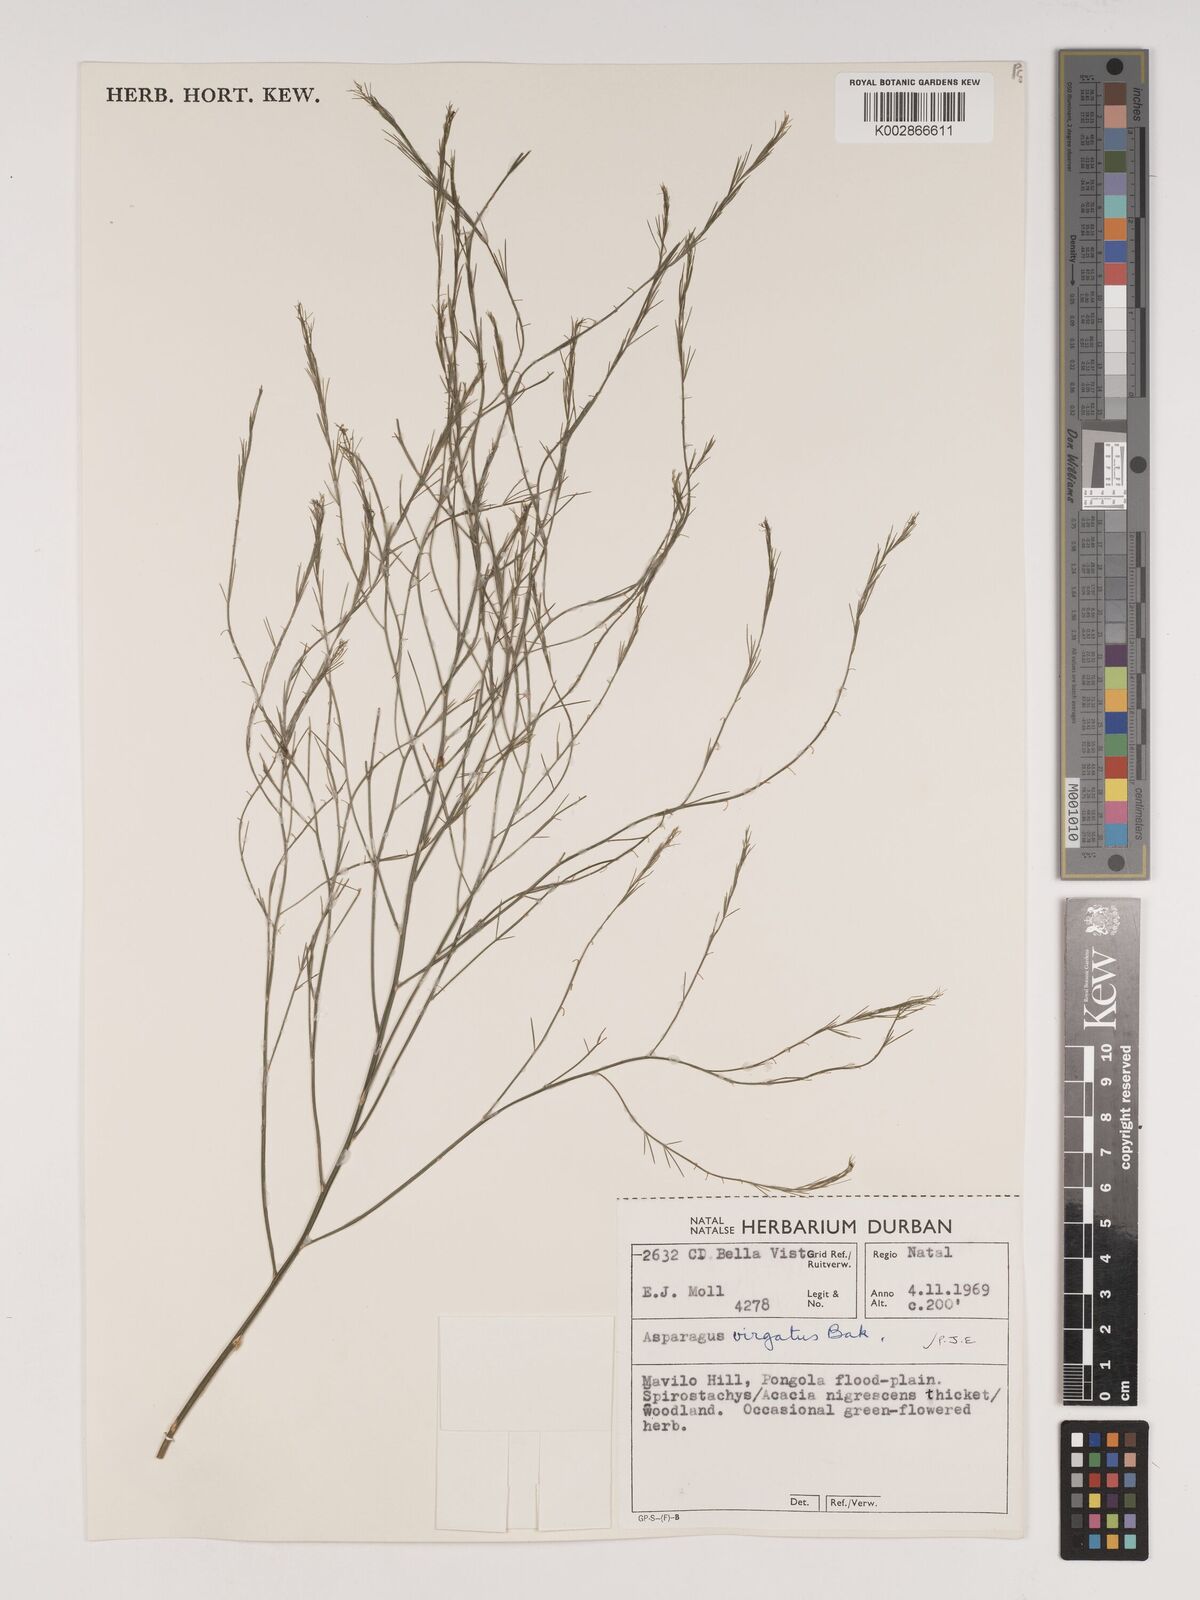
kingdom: Plantae
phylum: Tracheophyta
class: Liliopsida
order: Asparagales
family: Asparagaceae
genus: Asparagus
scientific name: Asparagus virgatus
